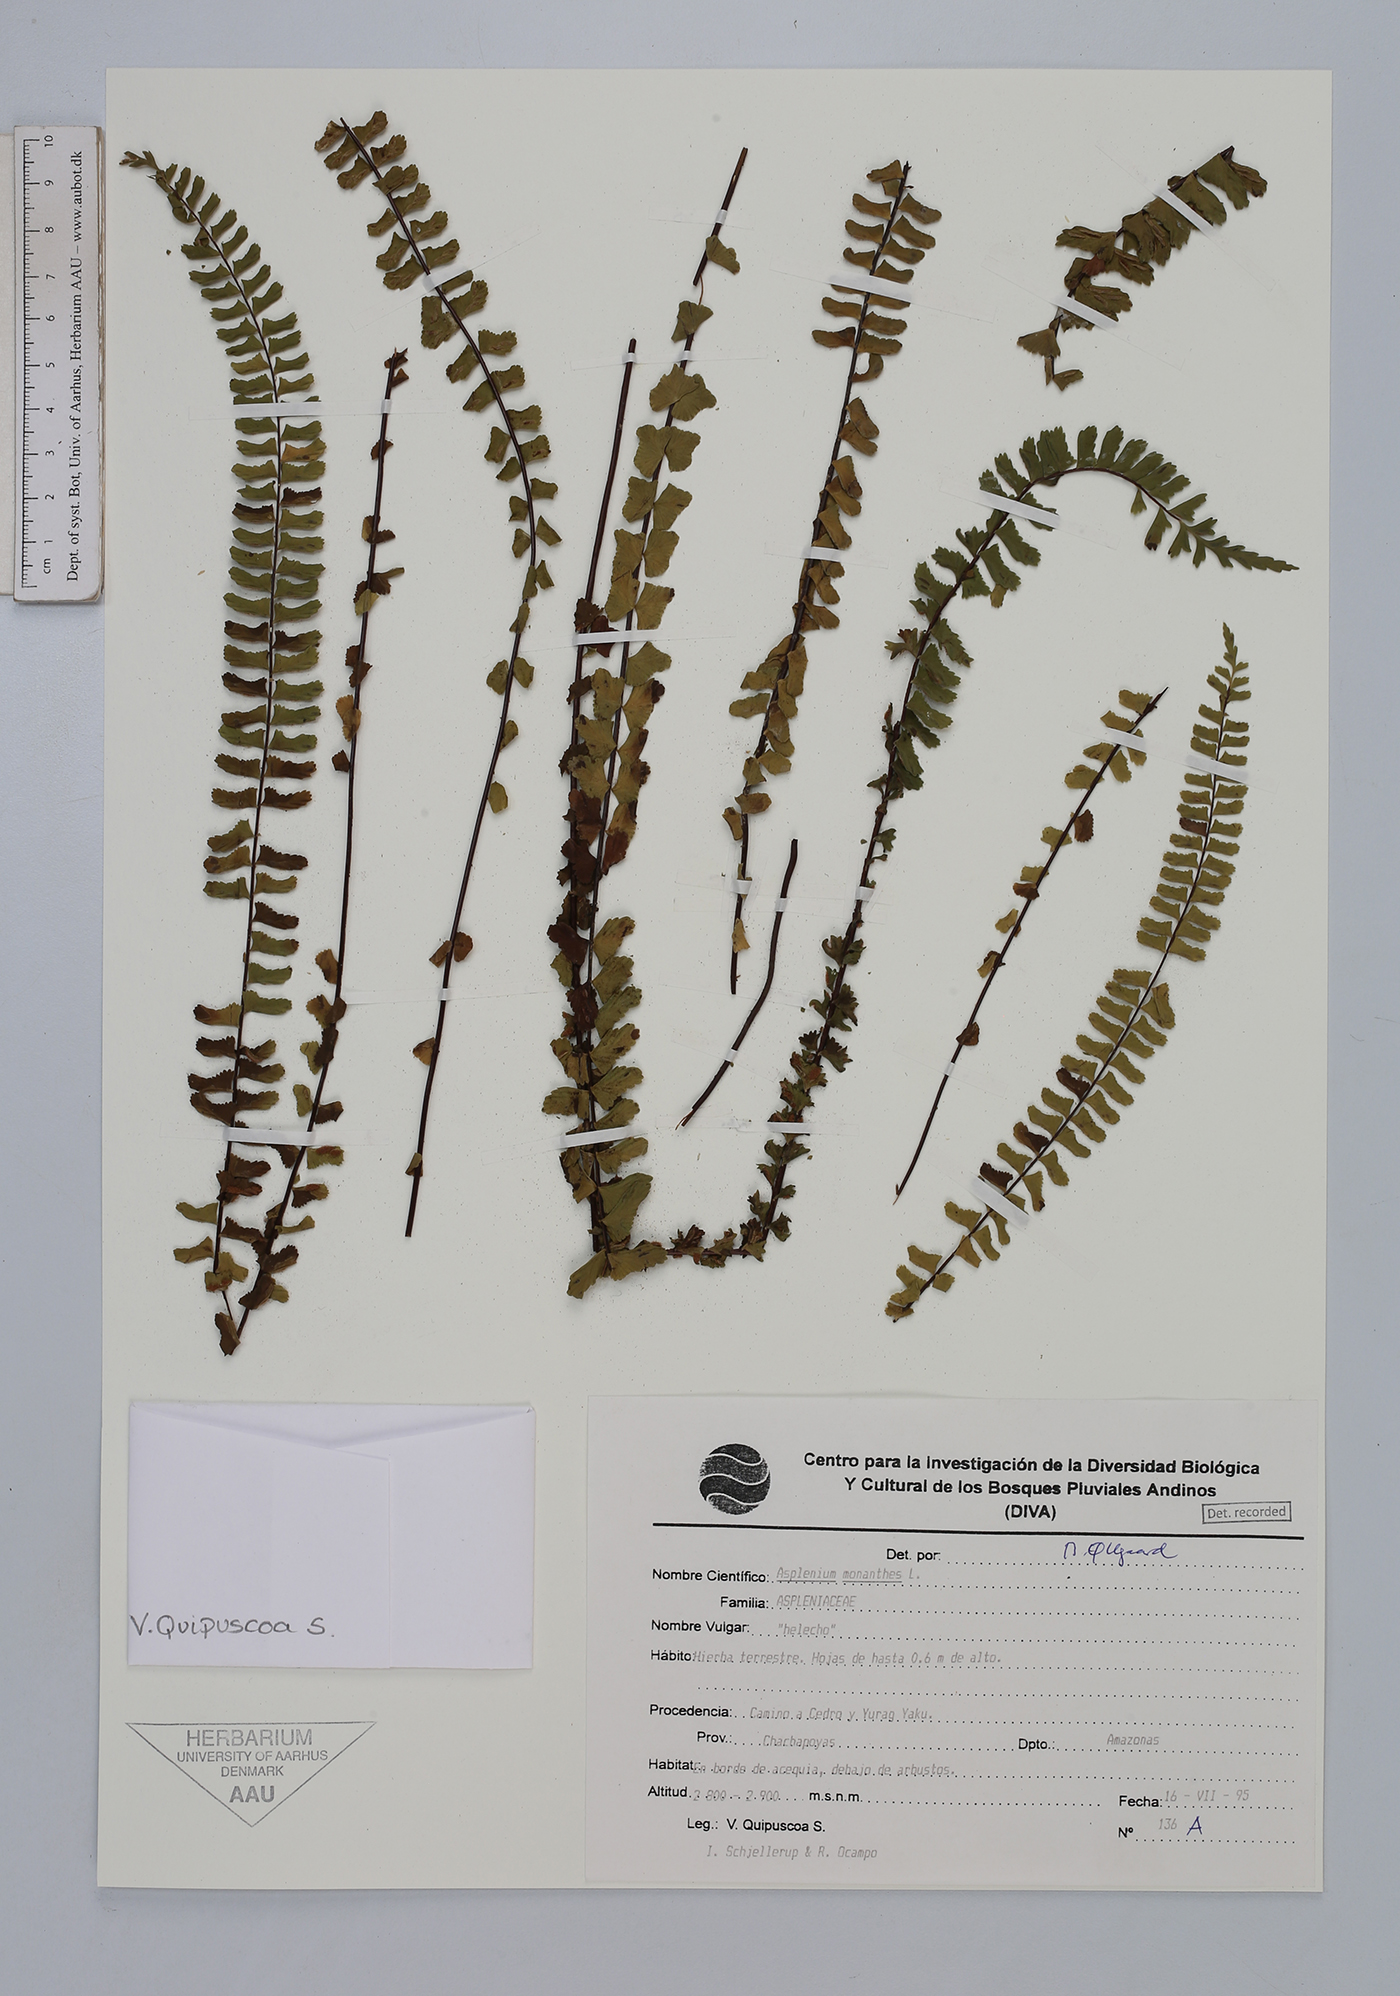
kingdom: Plantae
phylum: Tracheophyta
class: Polypodiopsida
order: Polypodiales
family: Aspleniaceae
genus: Asplenium
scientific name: Asplenium monanthes
